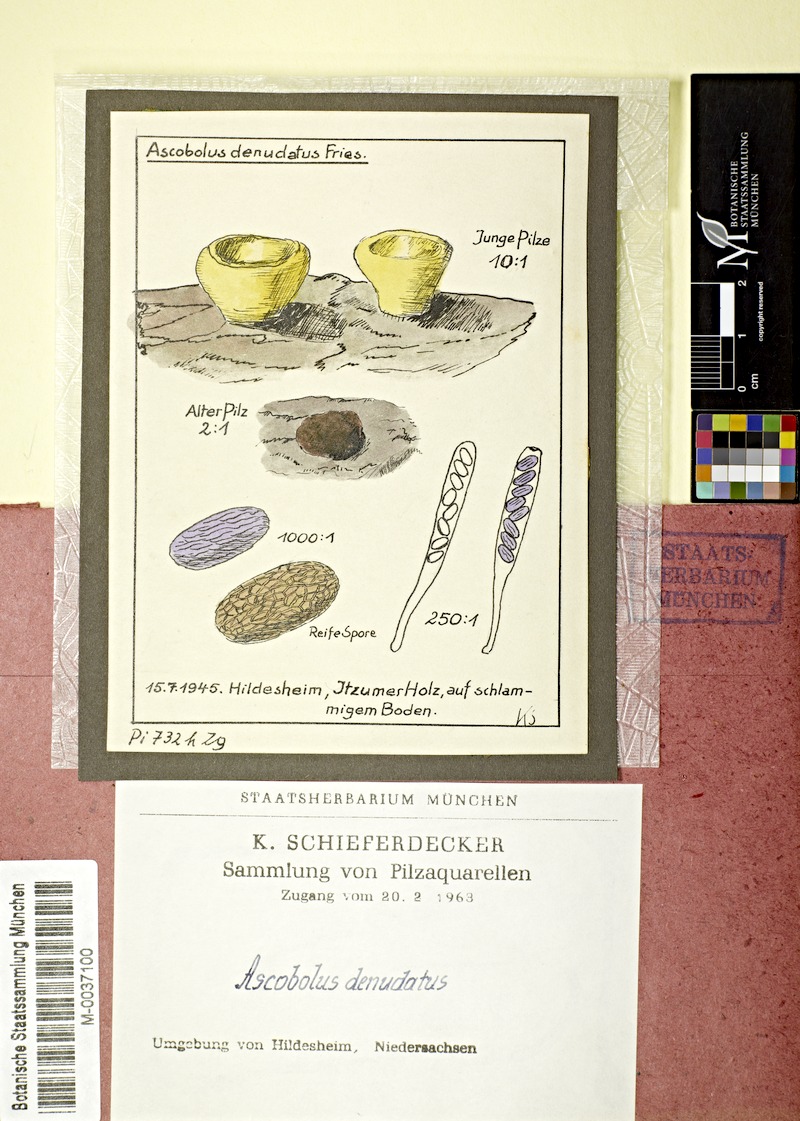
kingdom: Fungi
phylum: Ascomycota
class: Pezizomycetes
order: Pezizales
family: Ascobolaceae
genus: Ascobolus
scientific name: Ascobolus denudatus
